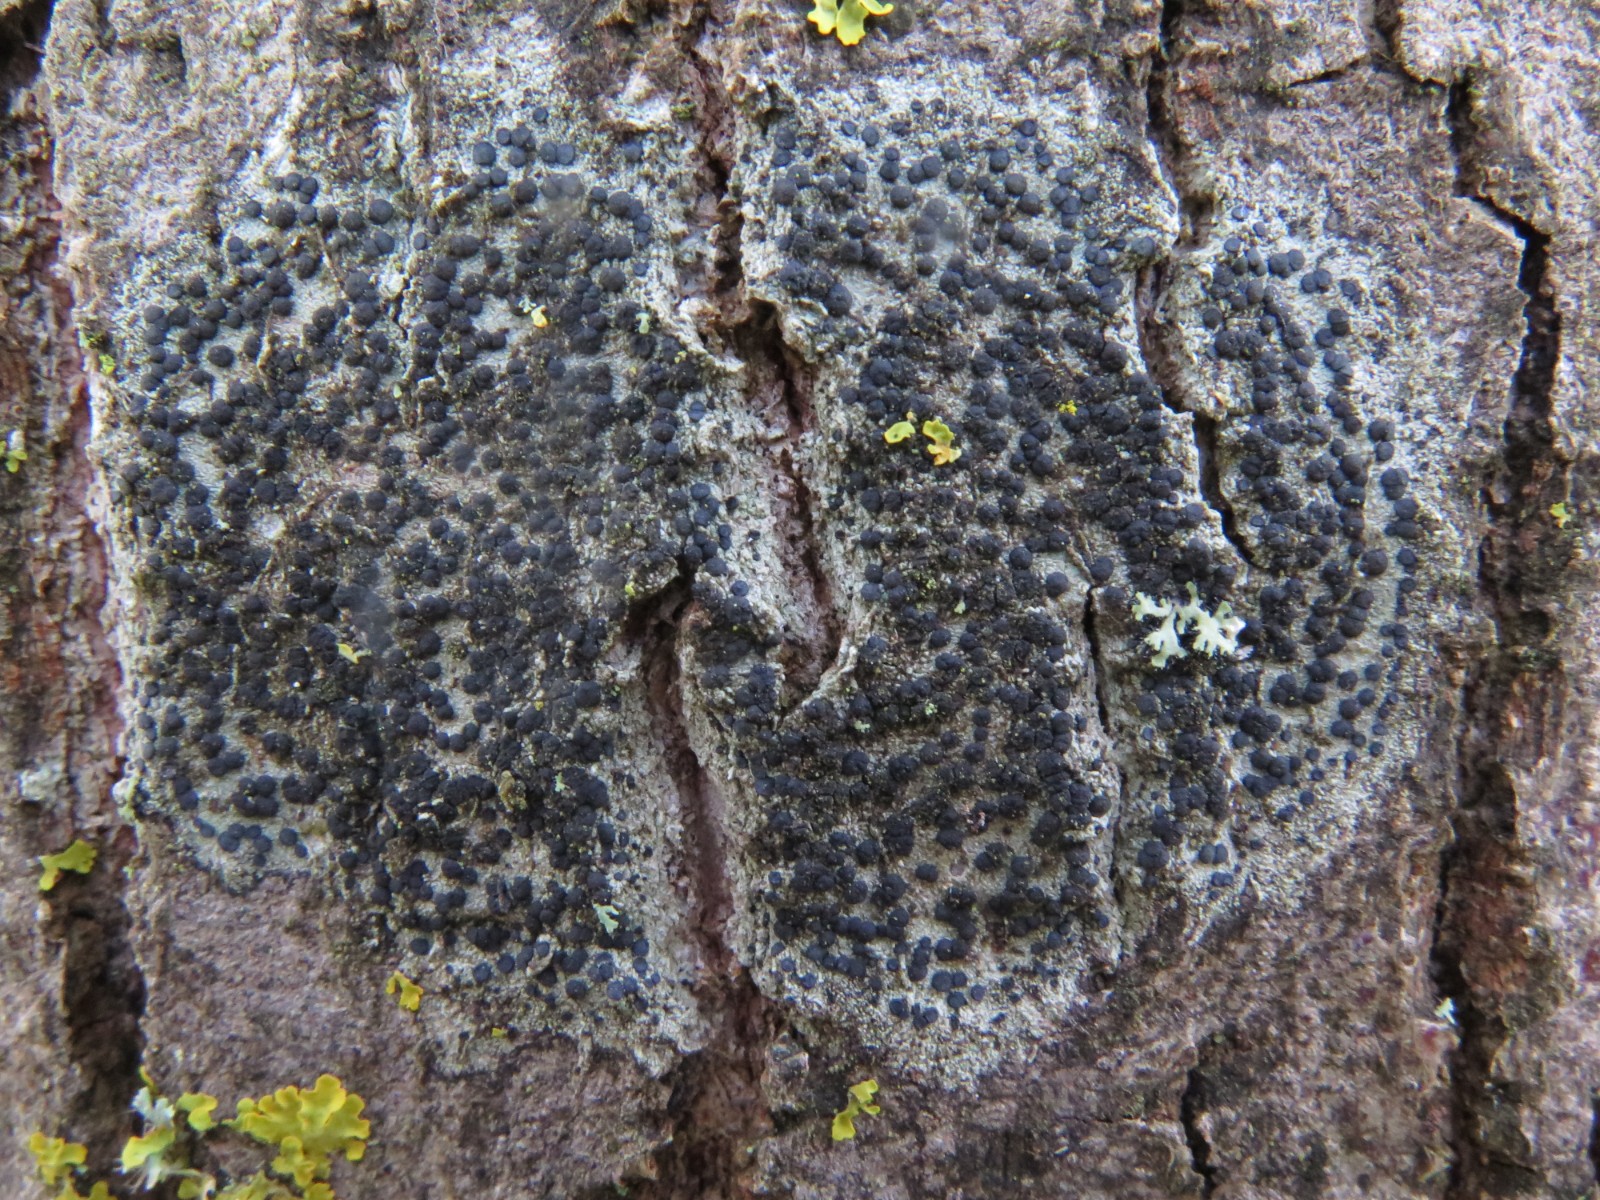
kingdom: Fungi
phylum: Ascomycota
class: Lecanoromycetes
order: Lecanorales
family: Lecanoraceae
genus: Lecidella
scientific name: Lecidella elaeochroma
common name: grågrøn skivelav
